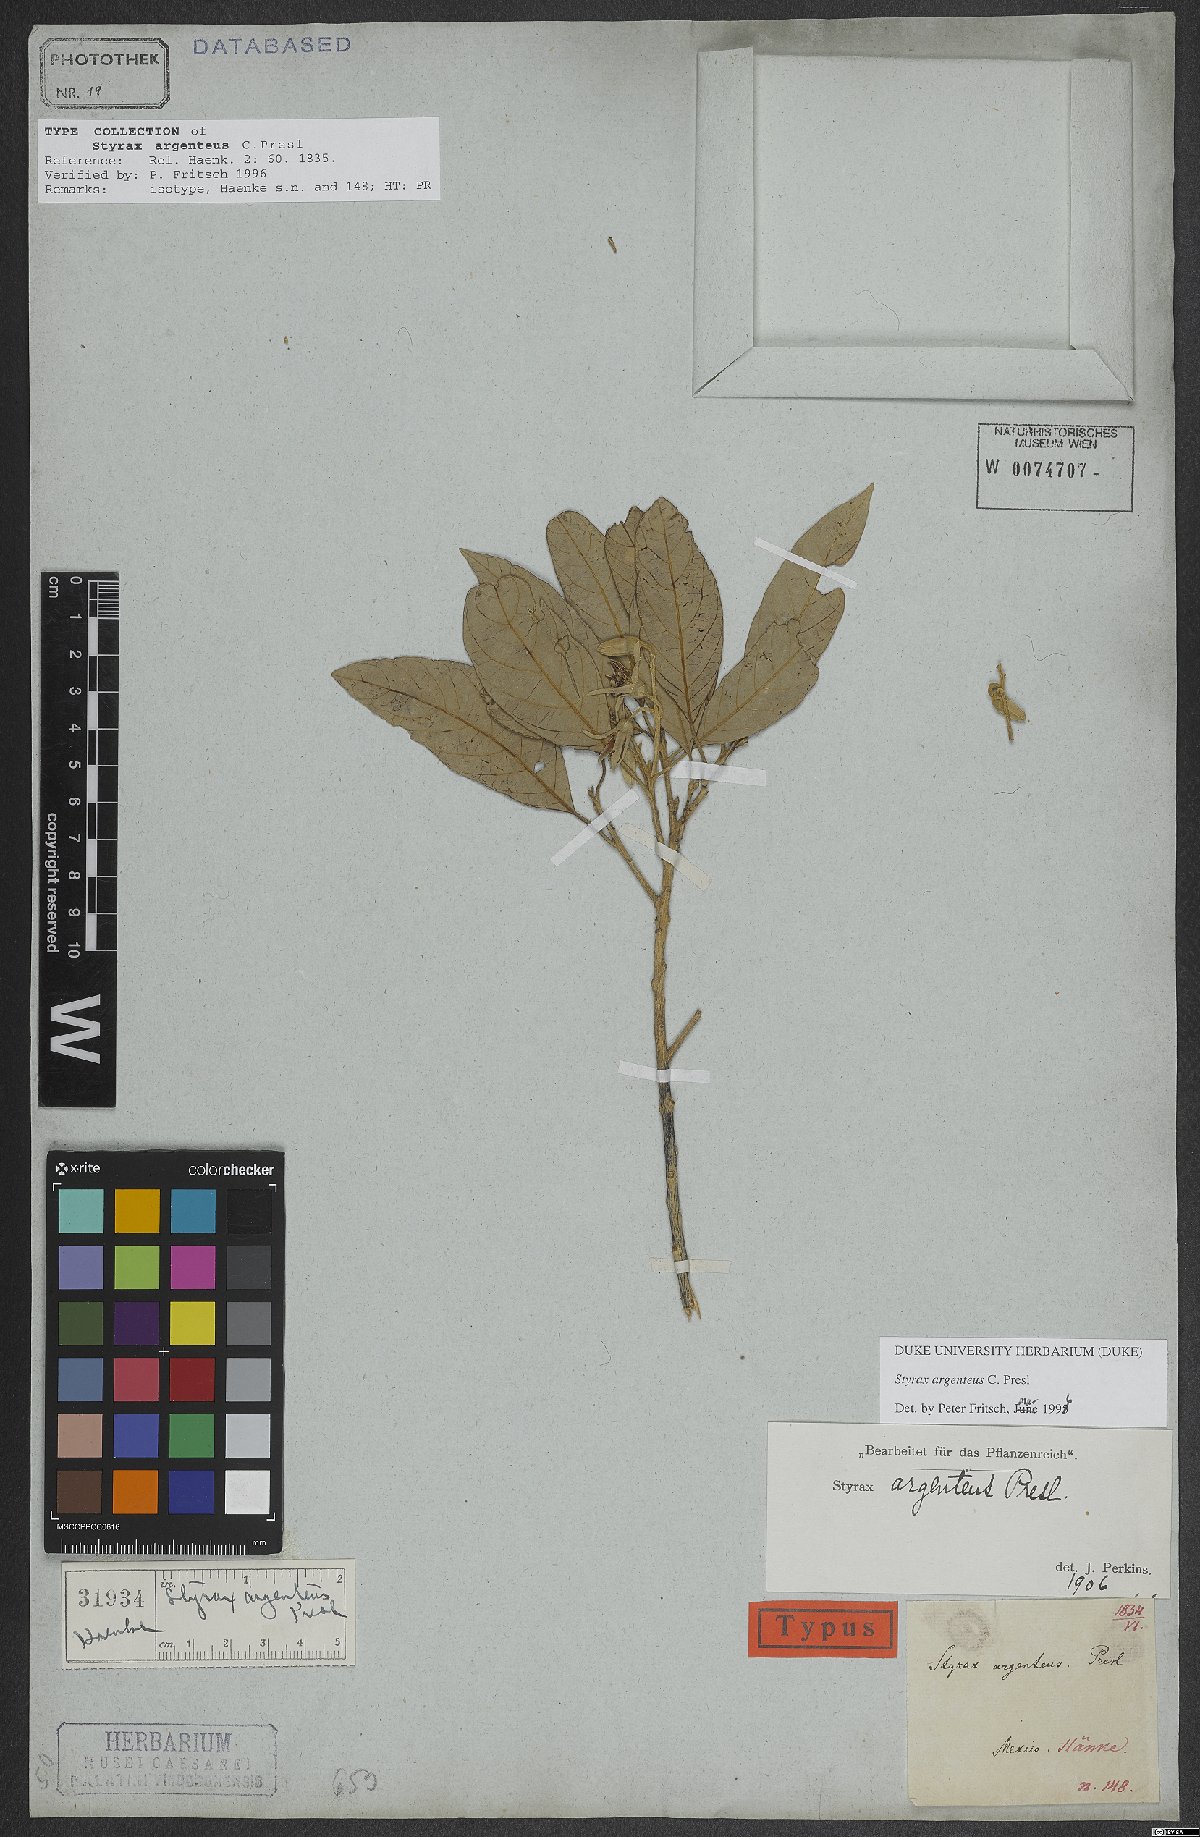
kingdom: Plantae
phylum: Tracheophyta
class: Magnoliopsida
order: Ericales
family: Styracaceae
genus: Styrax
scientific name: Styrax argenteus
